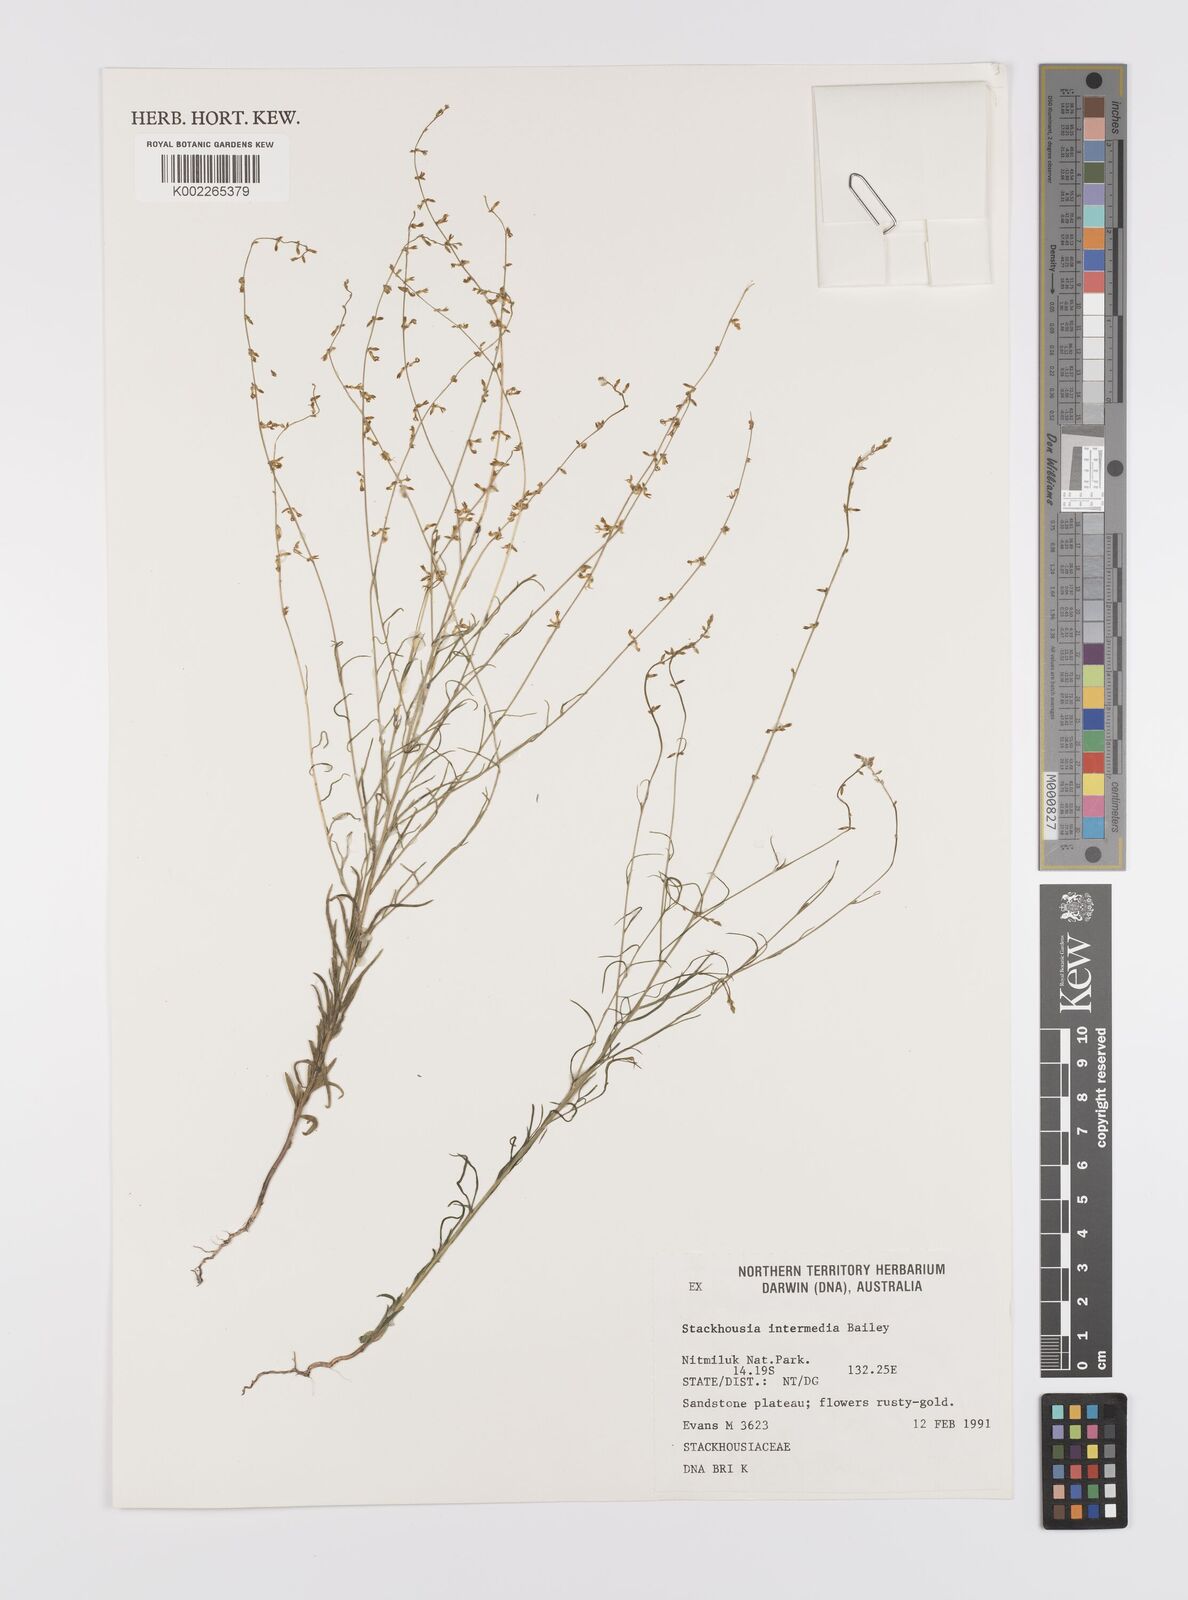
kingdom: Plantae
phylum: Tracheophyta
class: Magnoliopsida
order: Celastrales
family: Celastraceae
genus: Stackhousia
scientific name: Stackhousia intermedia
